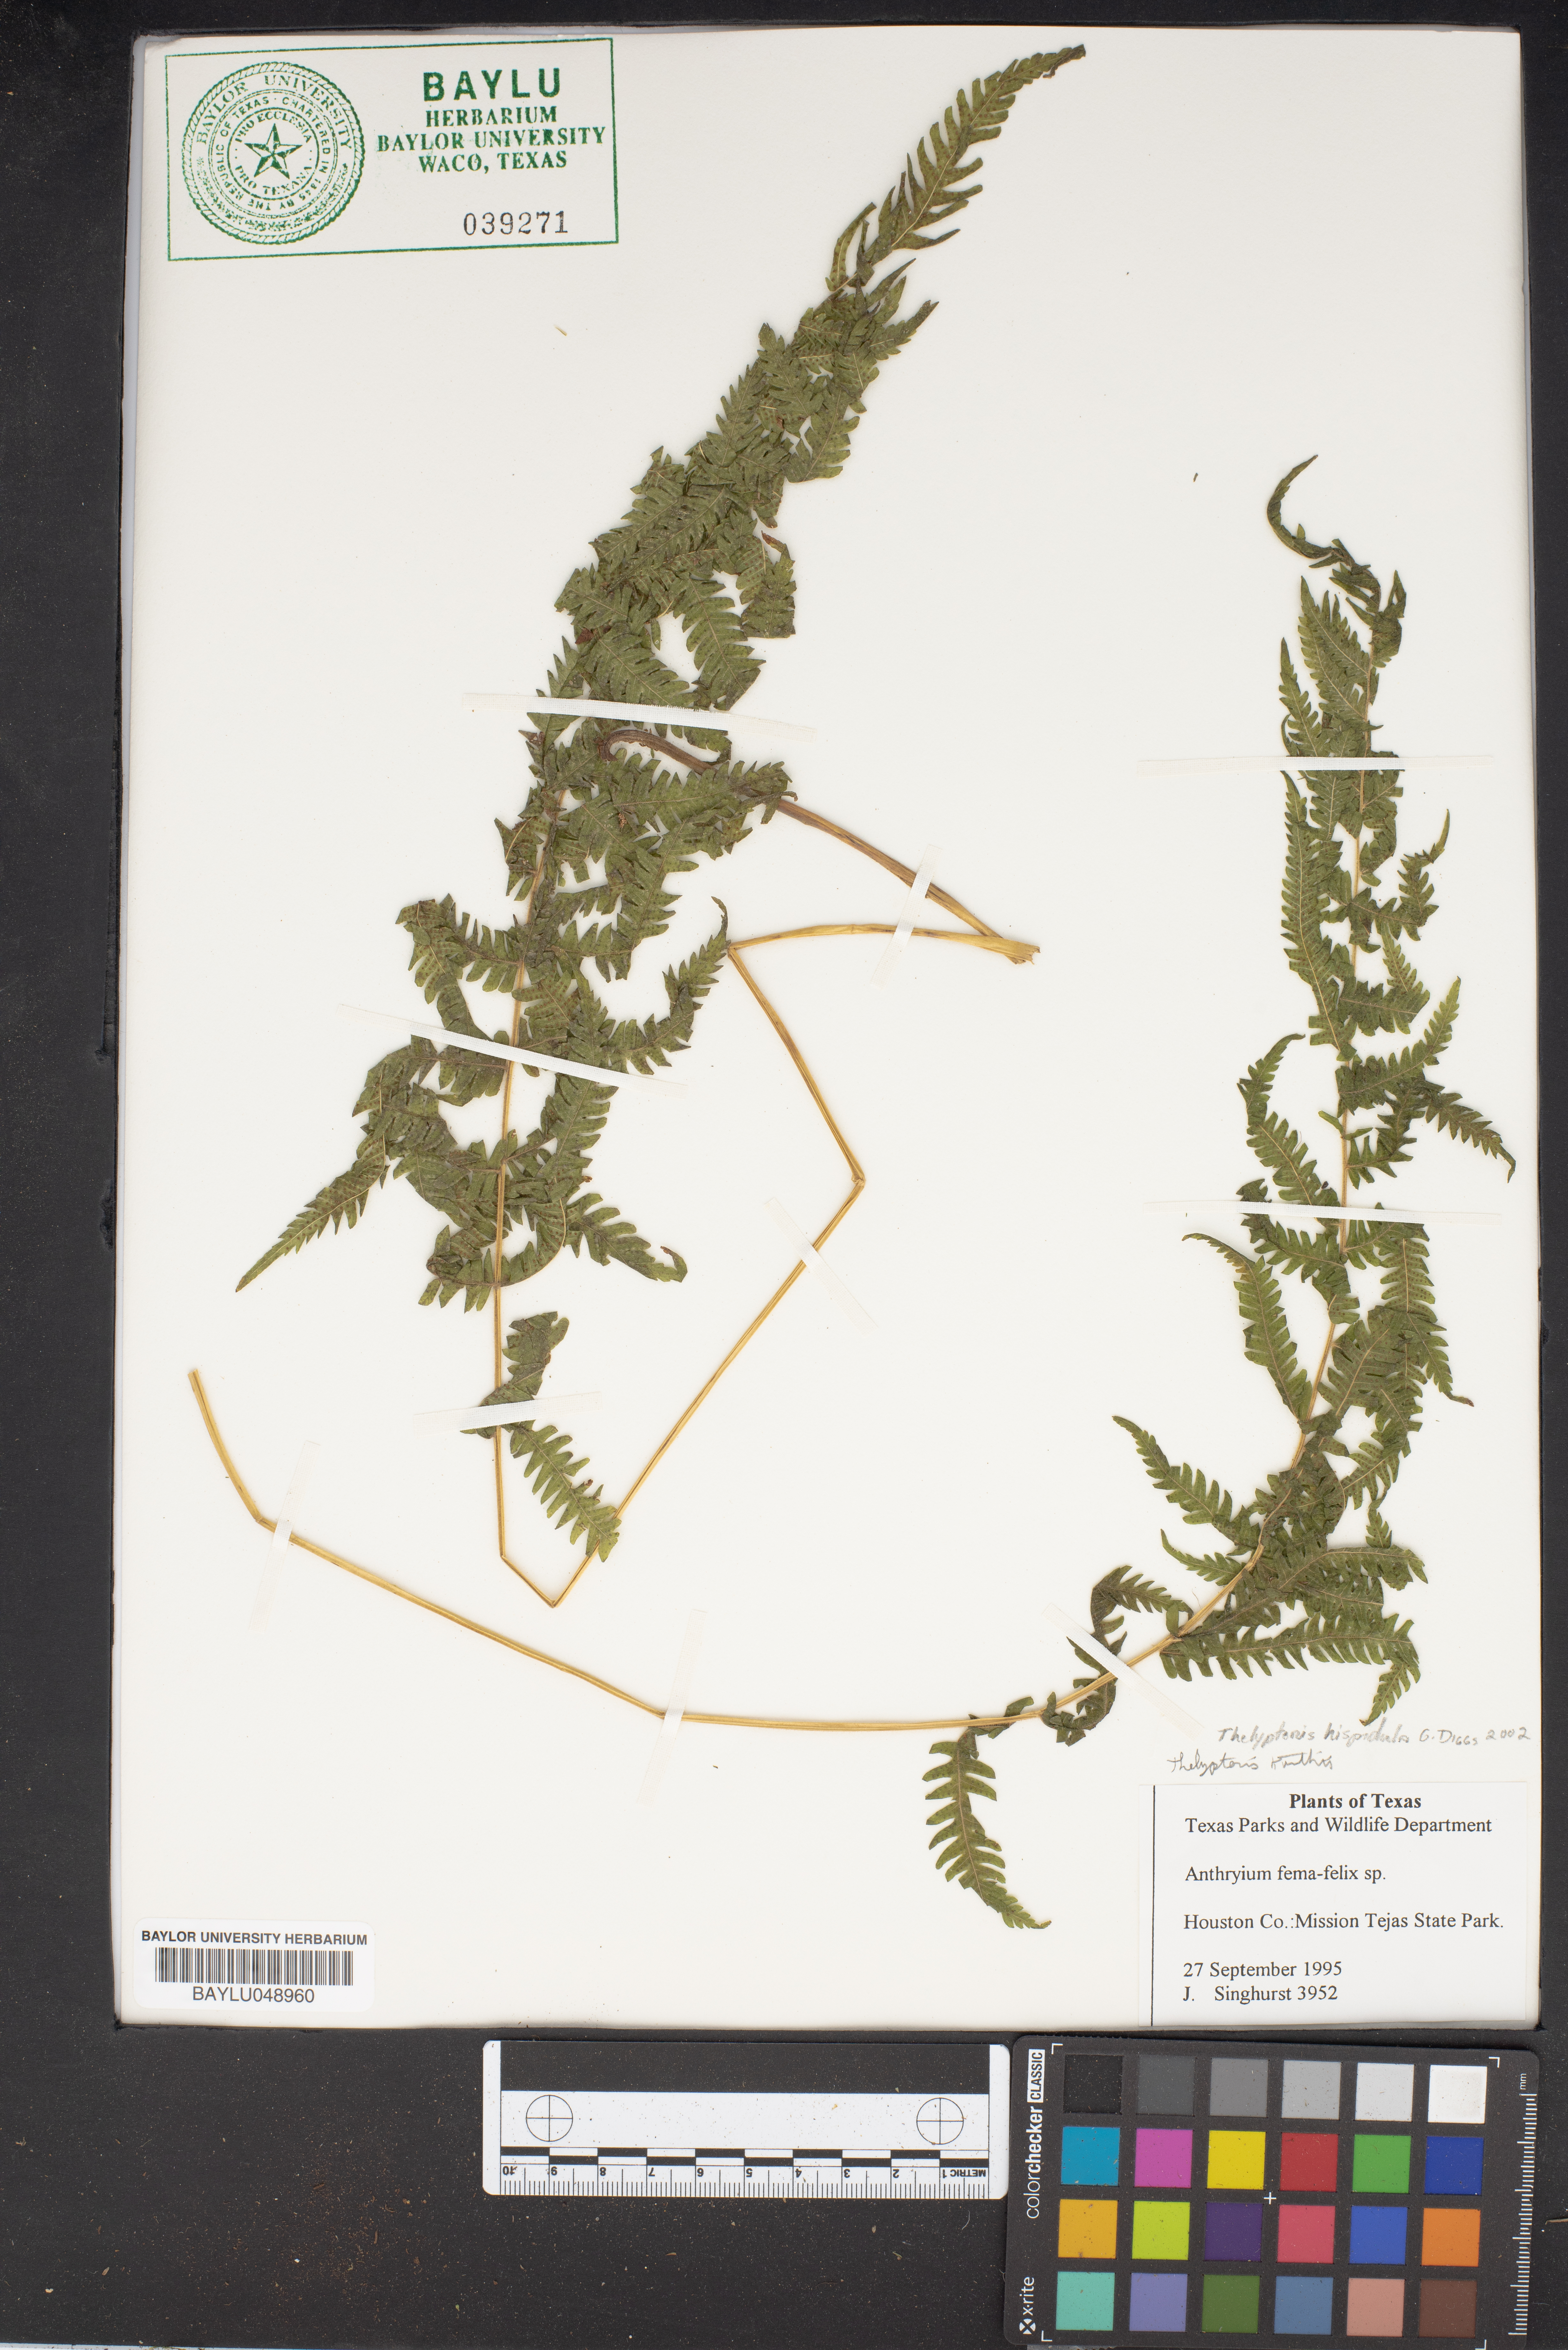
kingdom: Plantae
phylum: Tracheophyta
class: Polypodiopsida
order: Polypodiales
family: Thelypteridaceae
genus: Christella
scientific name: Christella hispidula
